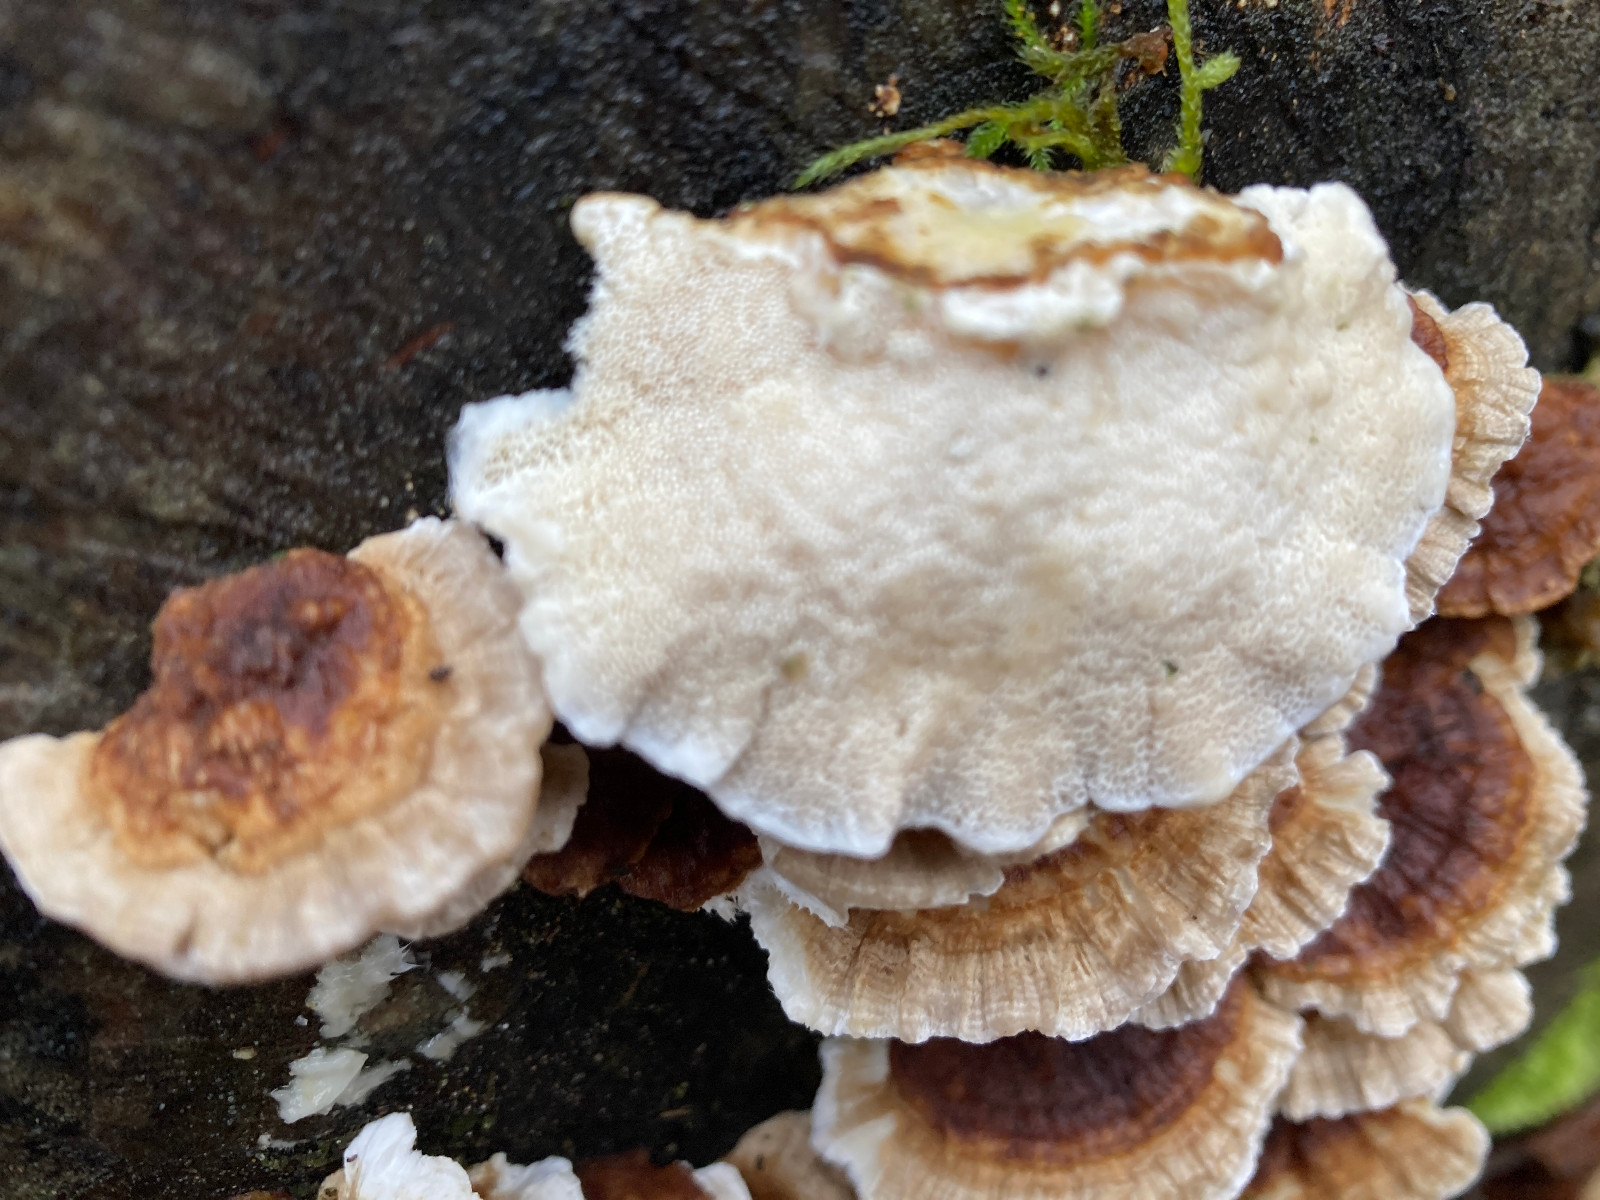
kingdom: Fungi
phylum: Basidiomycota
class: Agaricomycetes
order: Polyporales
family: Polyporaceae
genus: Trametes
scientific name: Trametes ochracea
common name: bæltet læderporesvamp
